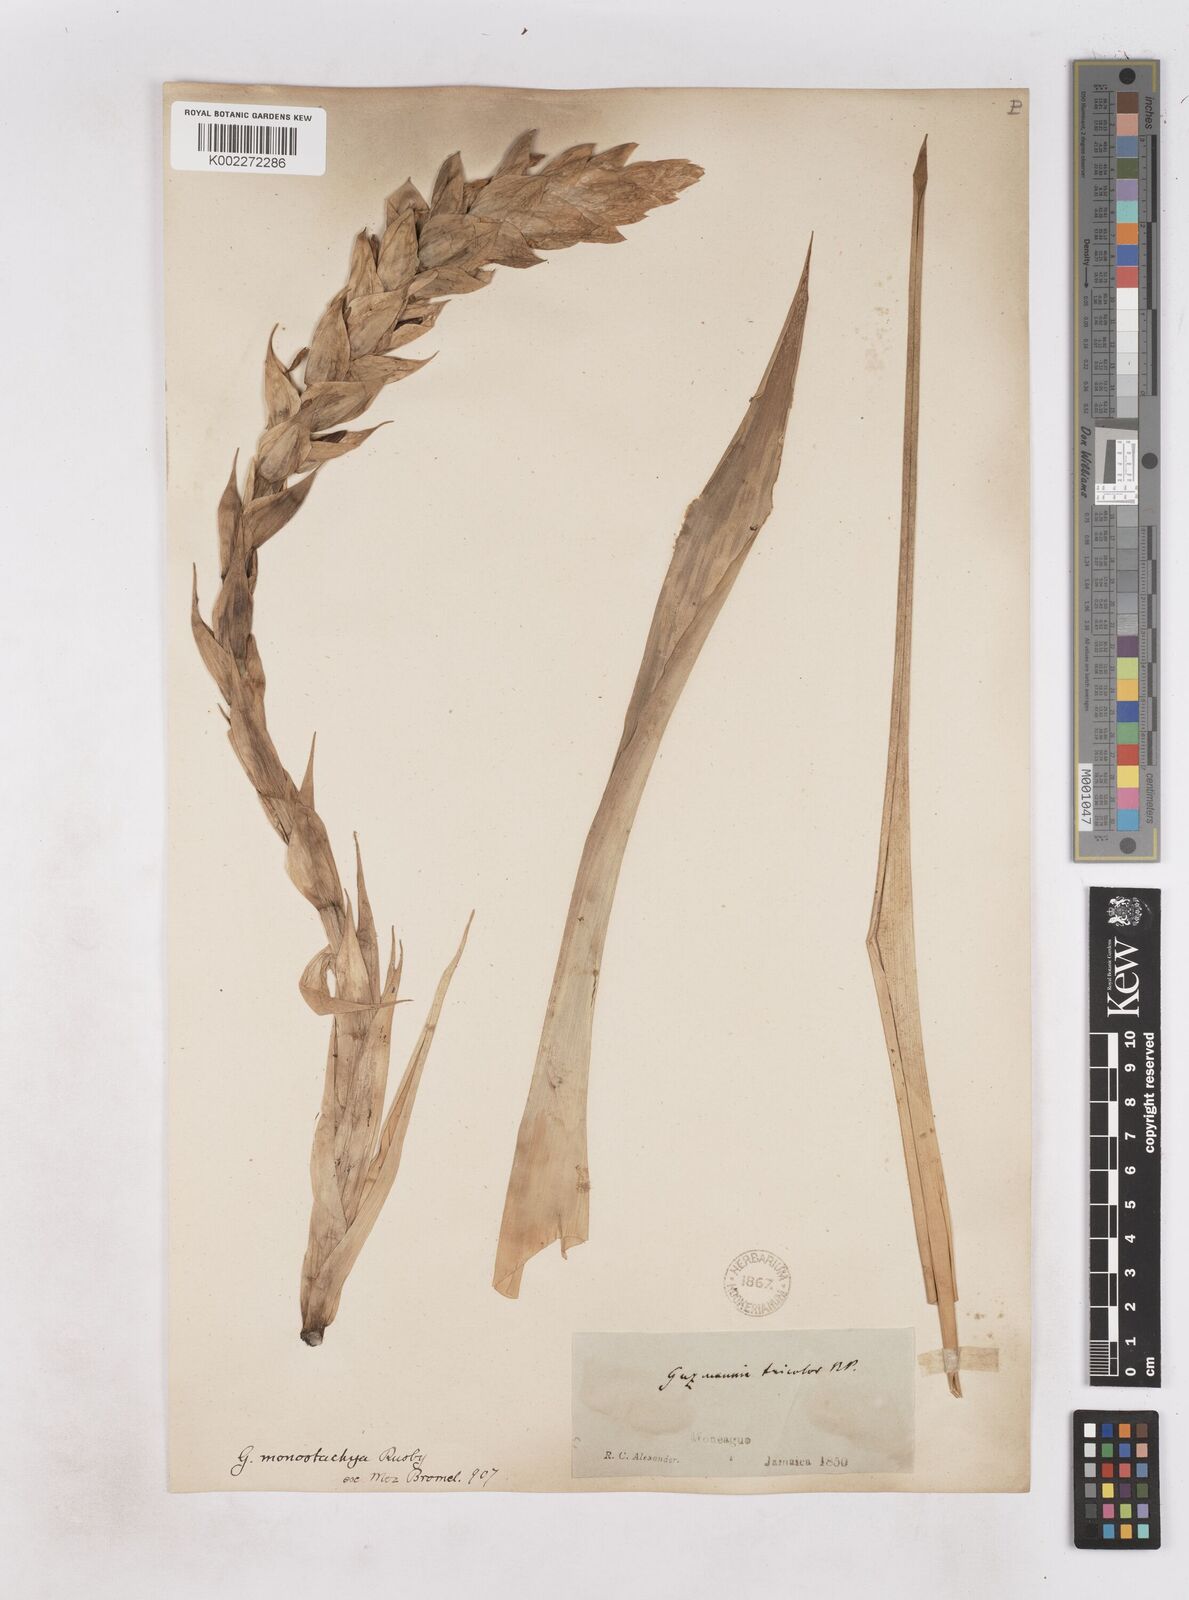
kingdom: Plantae
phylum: Tracheophyta
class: Liliopsida
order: Poales
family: Bromeliaceae
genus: Guzmania
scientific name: Guzmania monostachia
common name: West indian tufted airplant
